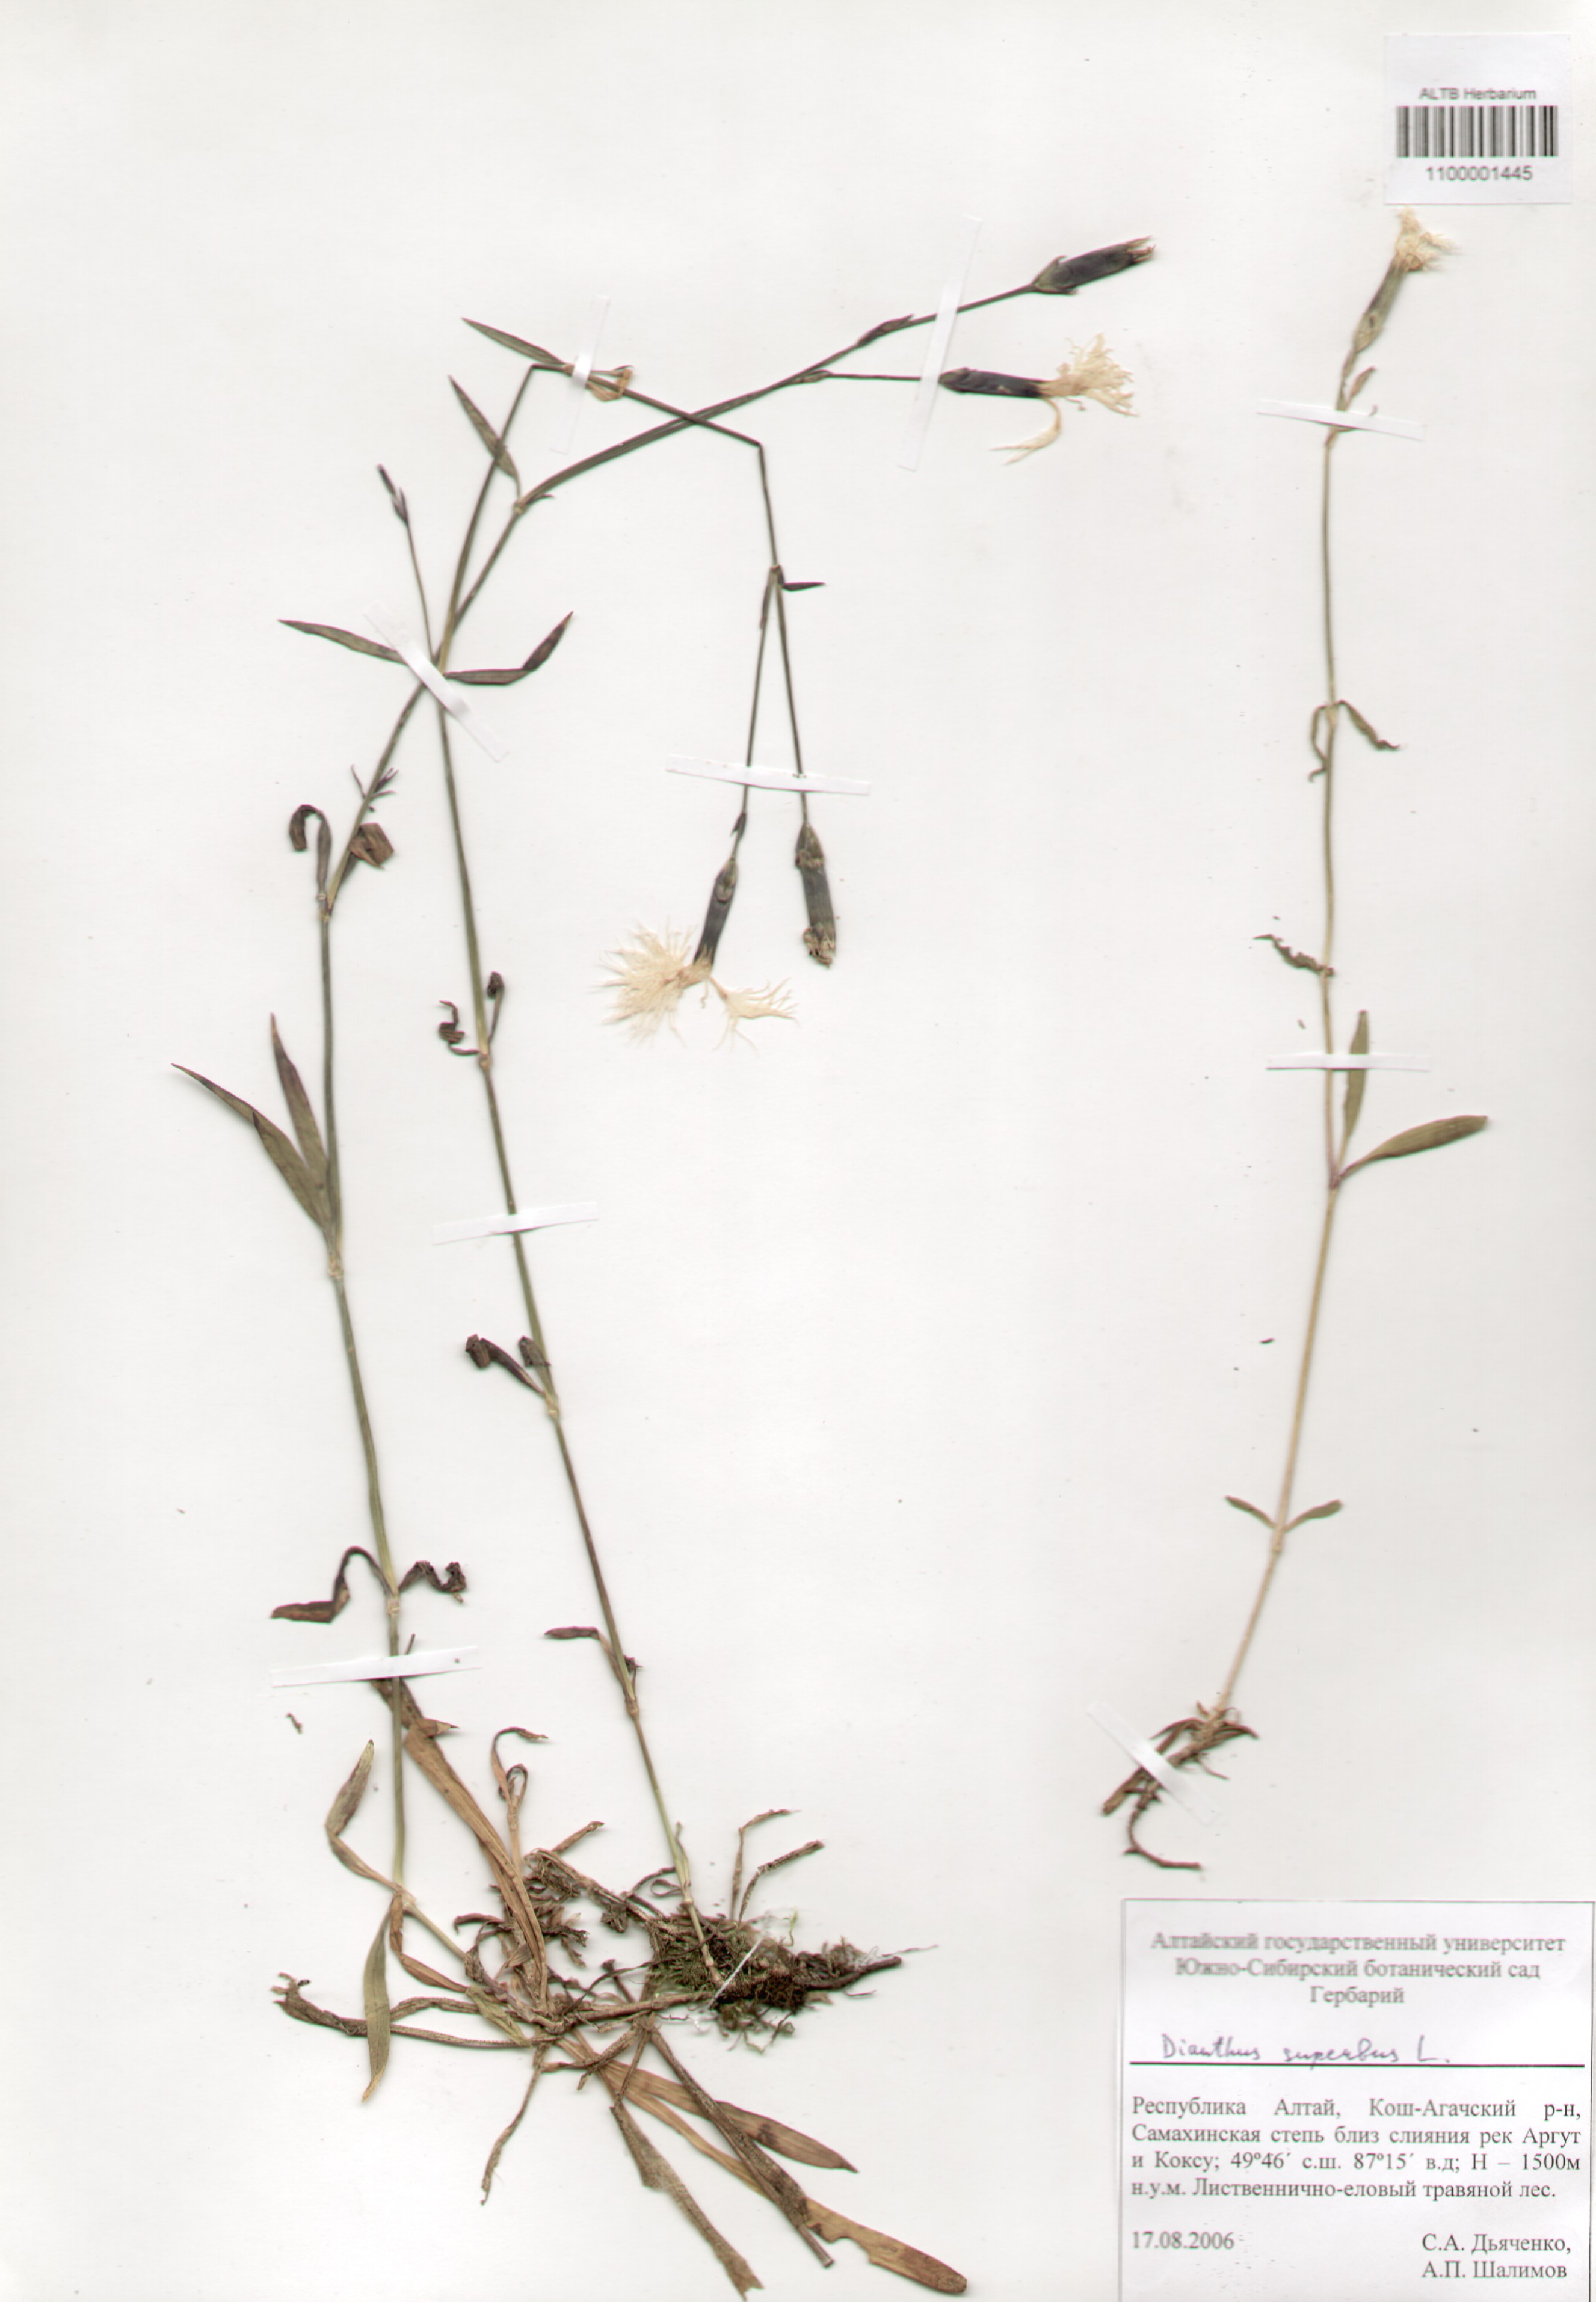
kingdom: Plantae
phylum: Tracheophyta
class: Magnoliopsida
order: Caryophyllales
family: Caryophyllaceae
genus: Dianthus
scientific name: Dianthus superbus
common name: Fringed pink
